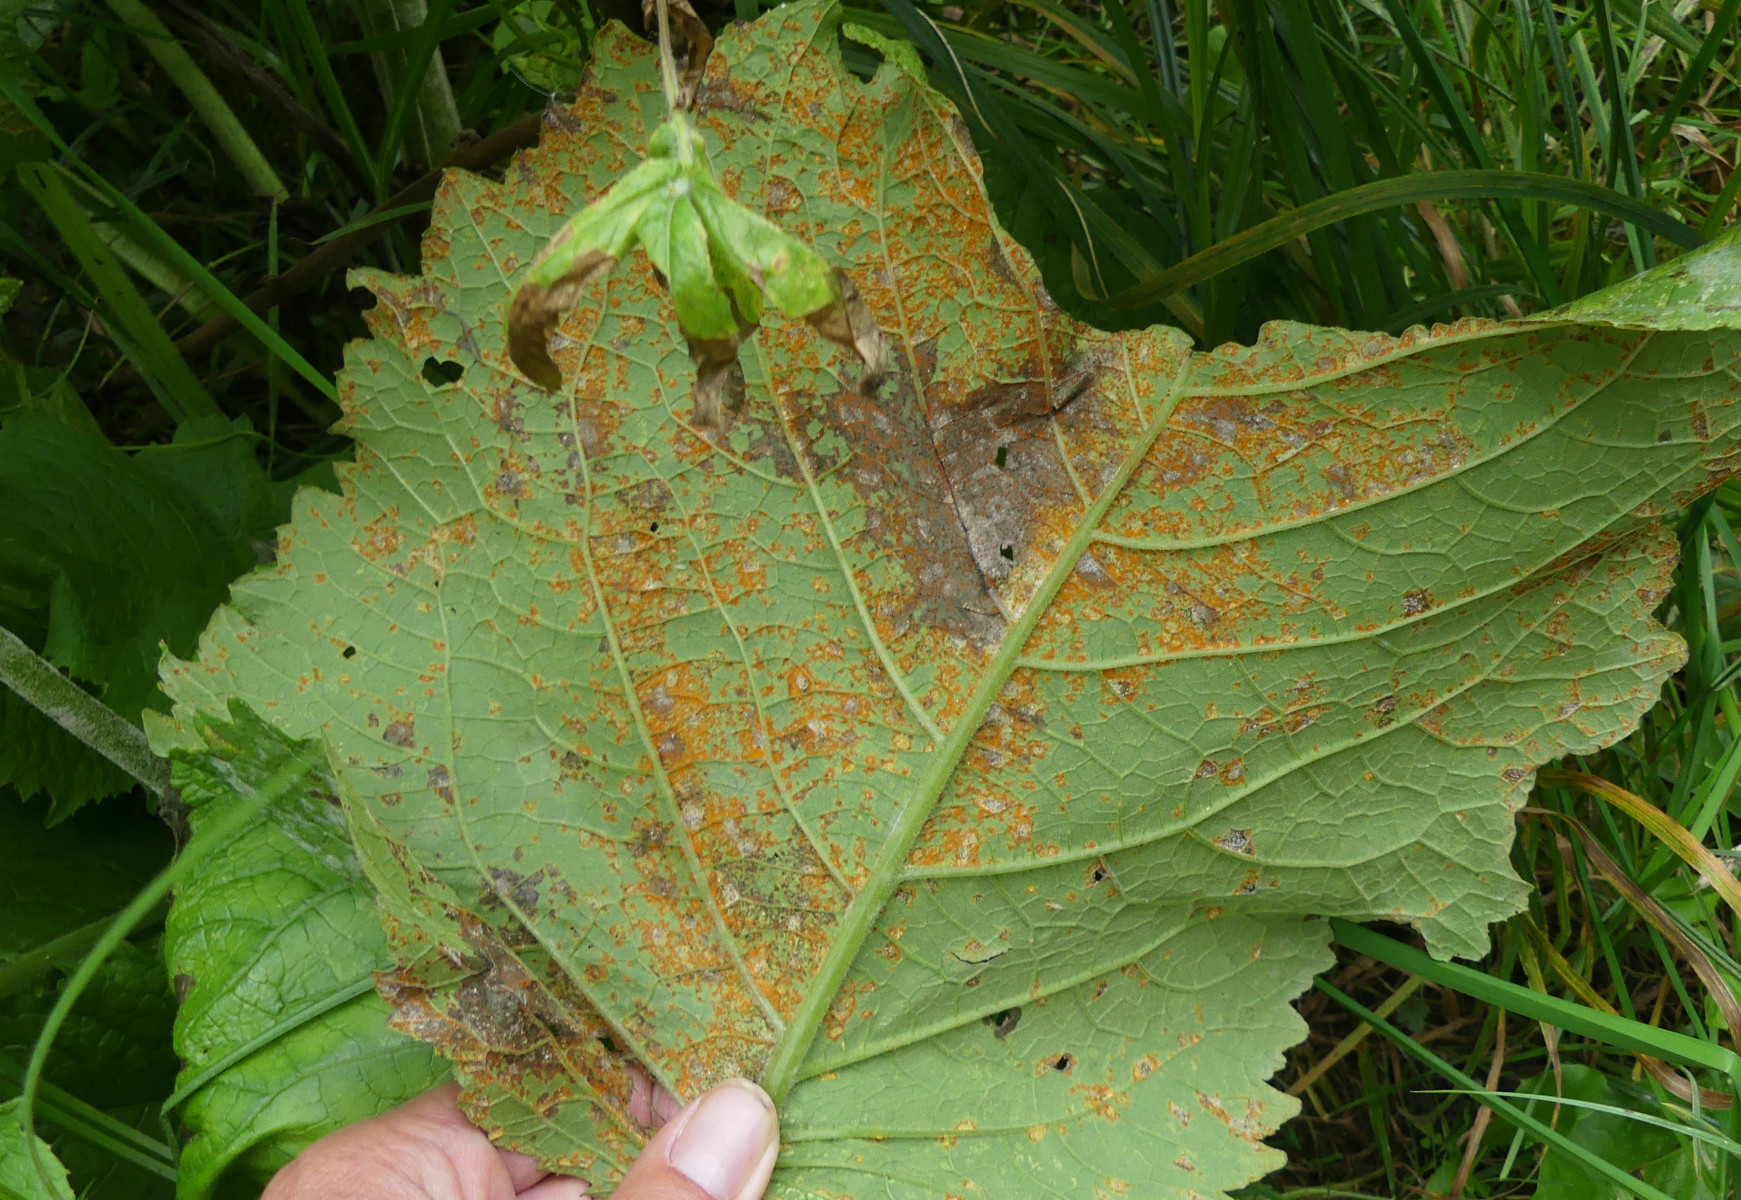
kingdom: Fungi
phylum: Basidiomycota
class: Pucciniomycetes
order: Pucciniales
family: Coleosporiaceae
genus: Coleosporium
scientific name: Coleosporium telekiae
